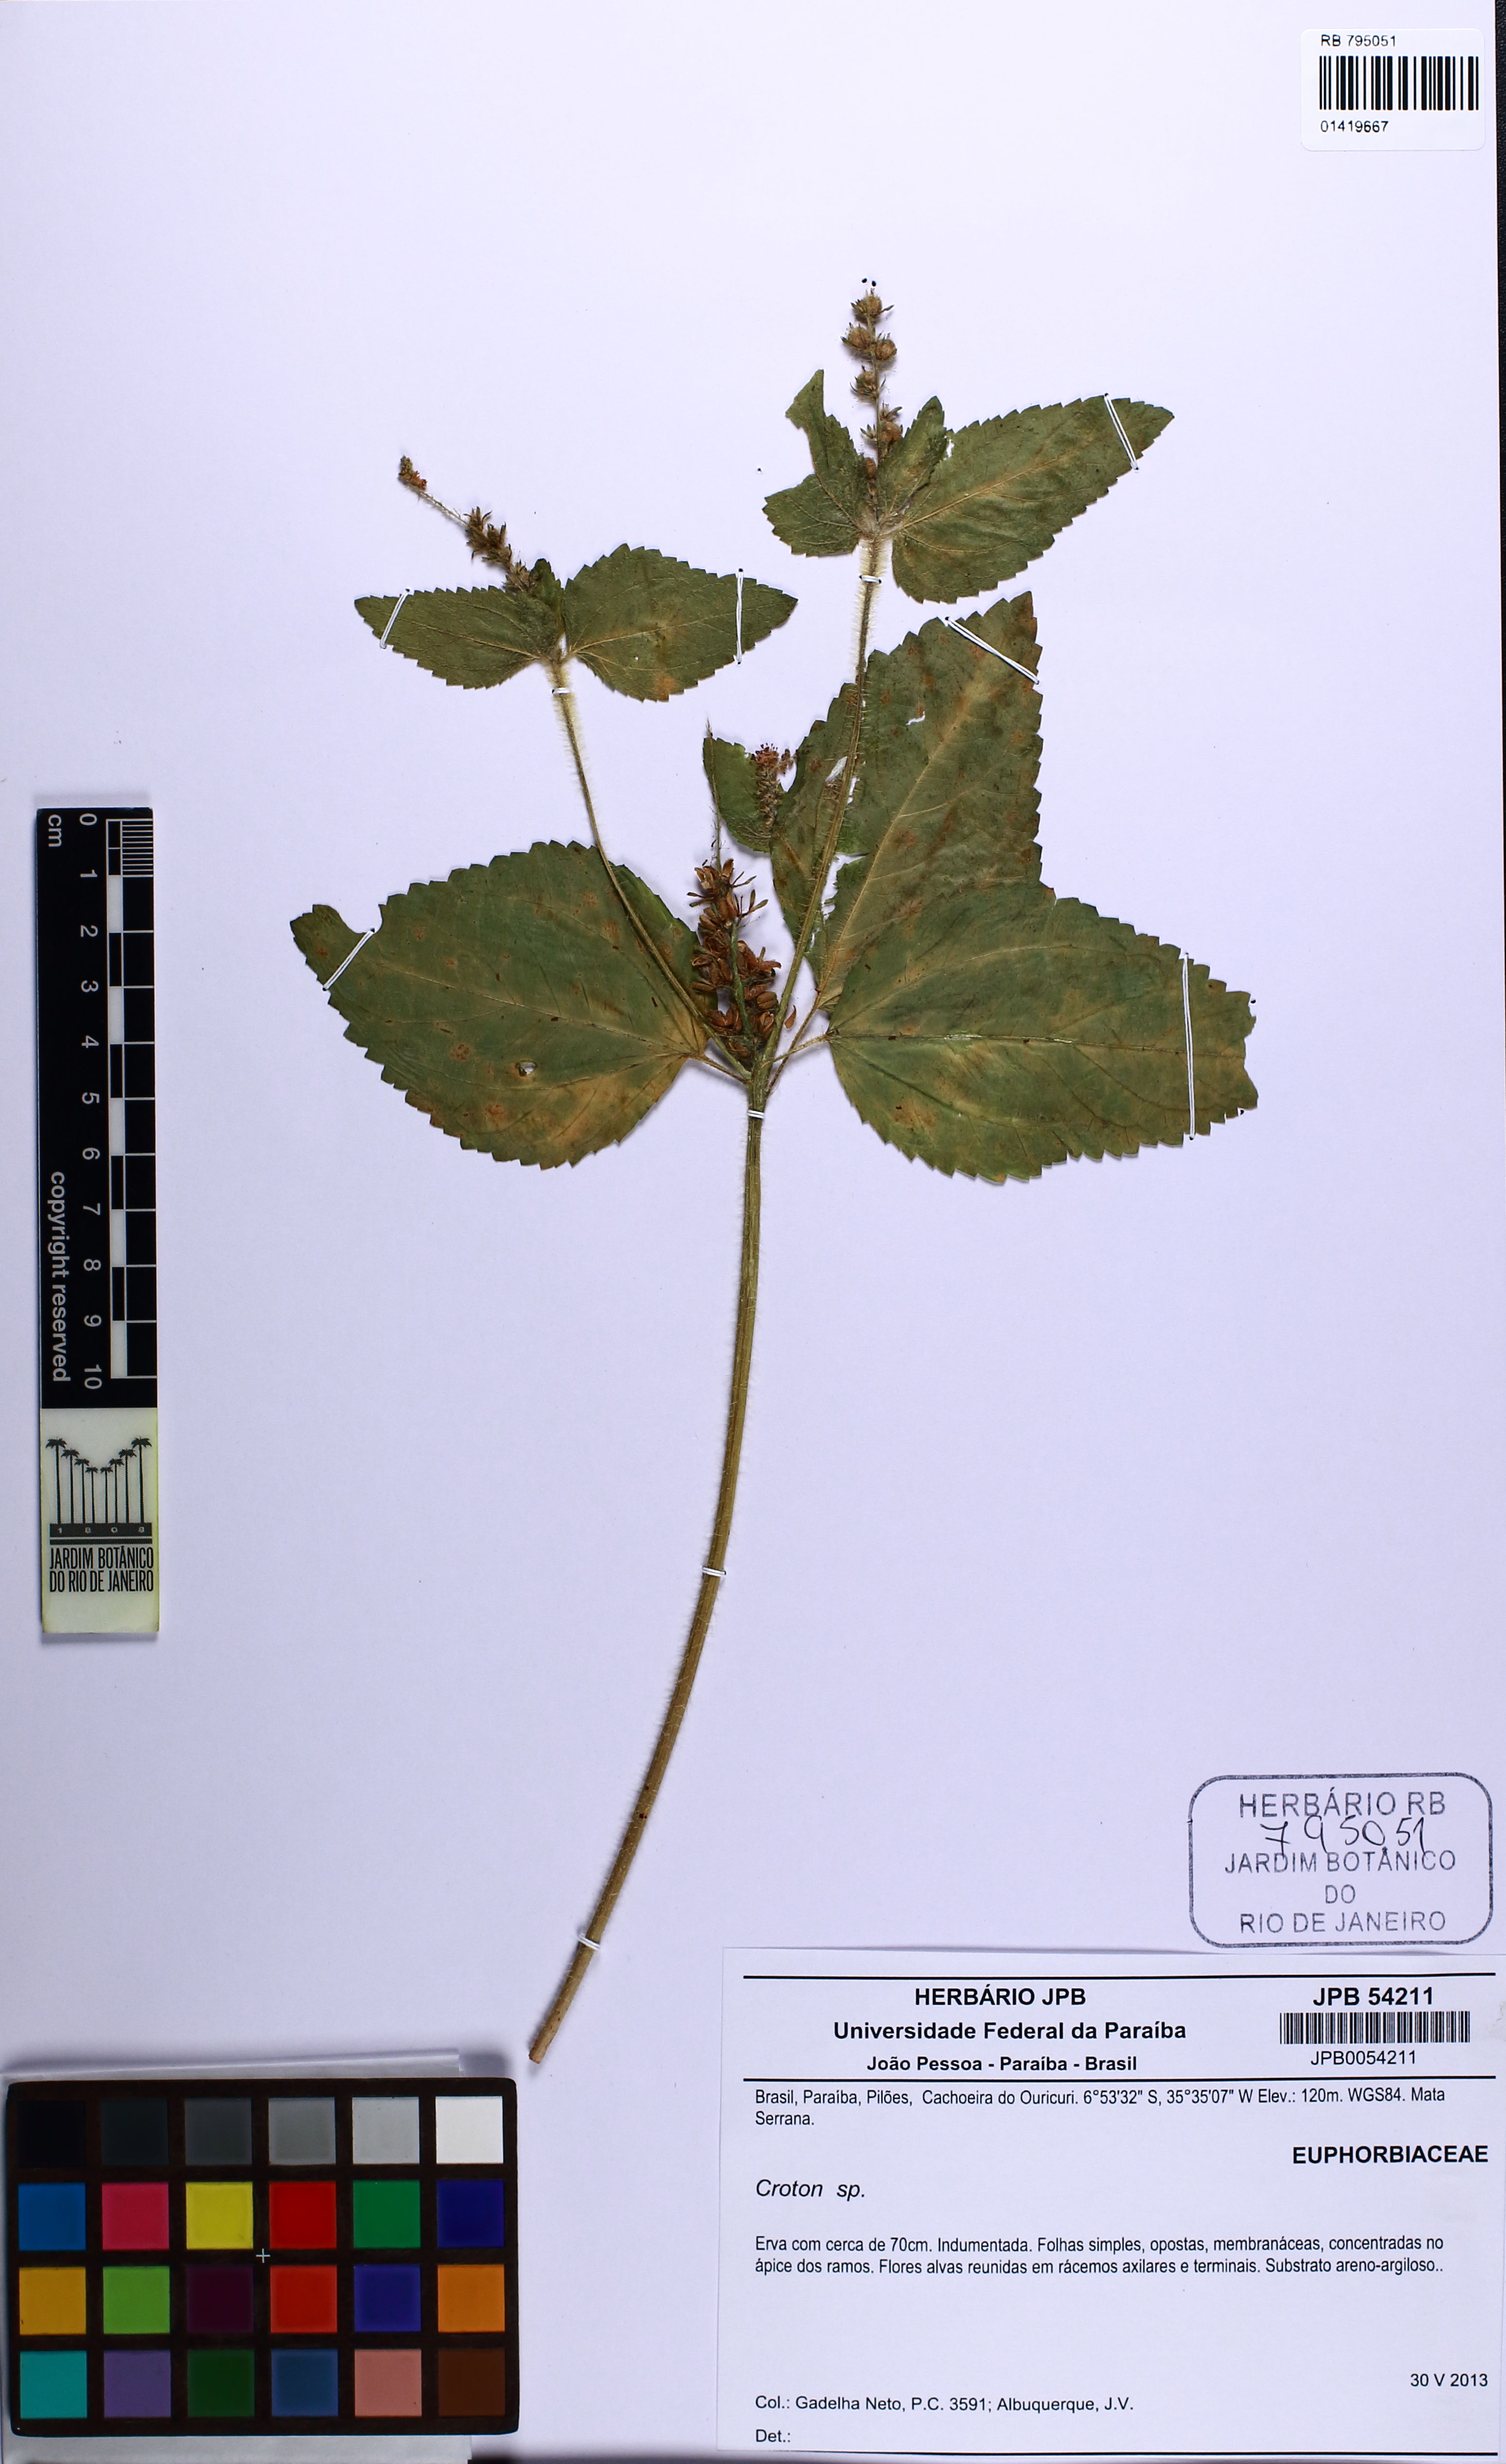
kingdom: Plantae
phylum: Tracheophyta
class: Magnoliopsida
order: Malpighiales
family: Euphorbiaceae
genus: Croton
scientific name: Croton hirtus
